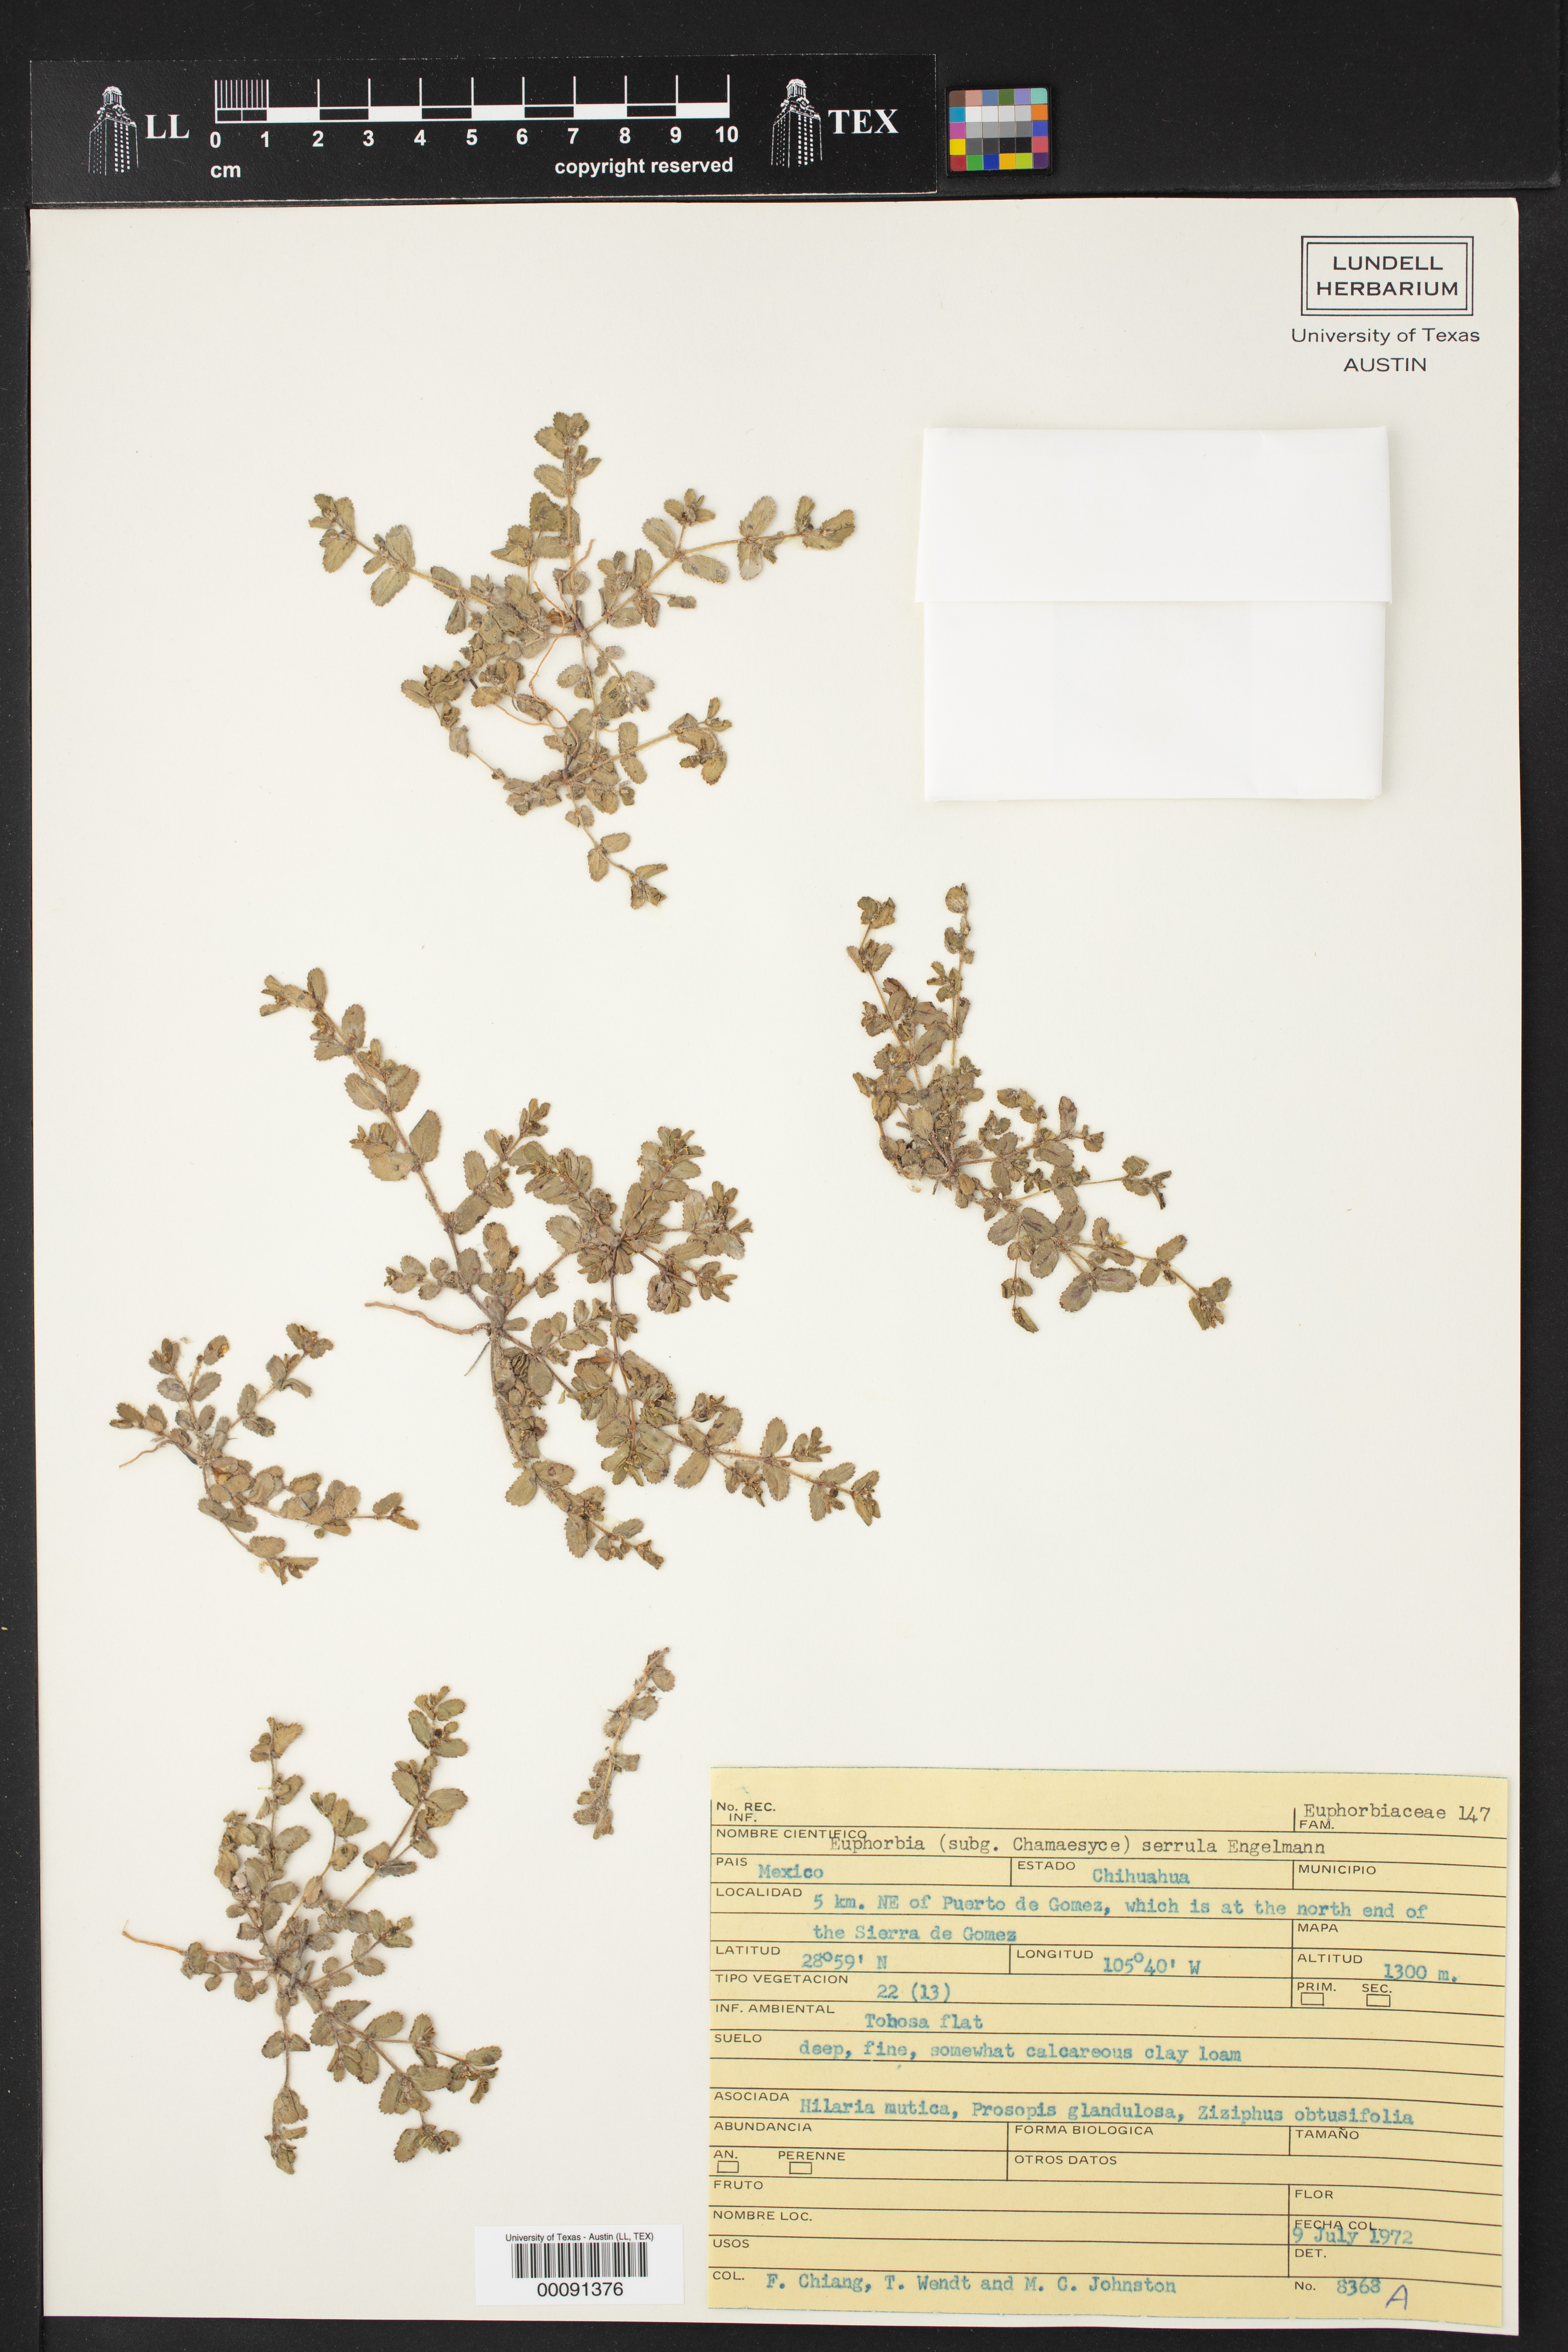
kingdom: Plantae
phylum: Tracheophyta
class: Magnoliopsida
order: Malpighiales
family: Euphorbiaceae
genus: Euphorbia
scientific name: Euphorbia serrula
